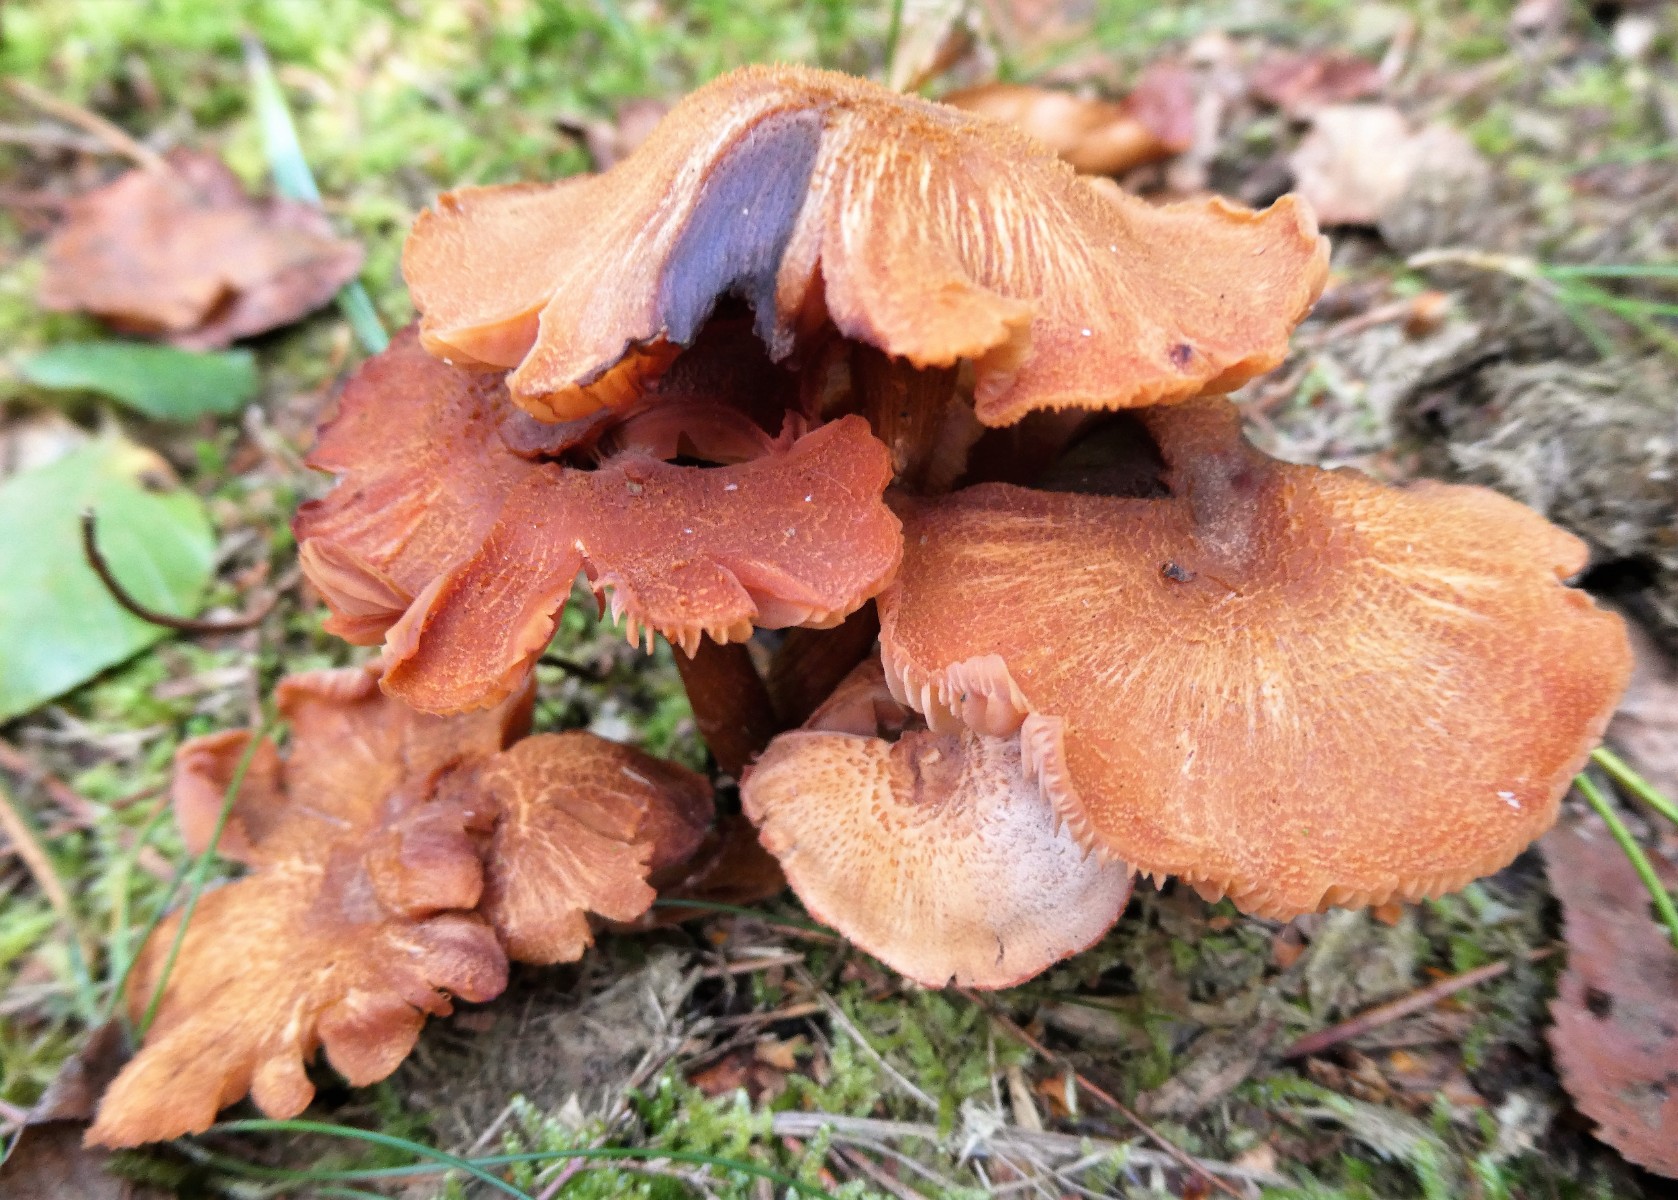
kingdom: Fungi
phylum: Basidiomycota
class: Agaricomycetes
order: Agaricales
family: Hydnangiaceae
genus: Laccaria
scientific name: Laccaria bicolor
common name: tvefarvet ametysthat
